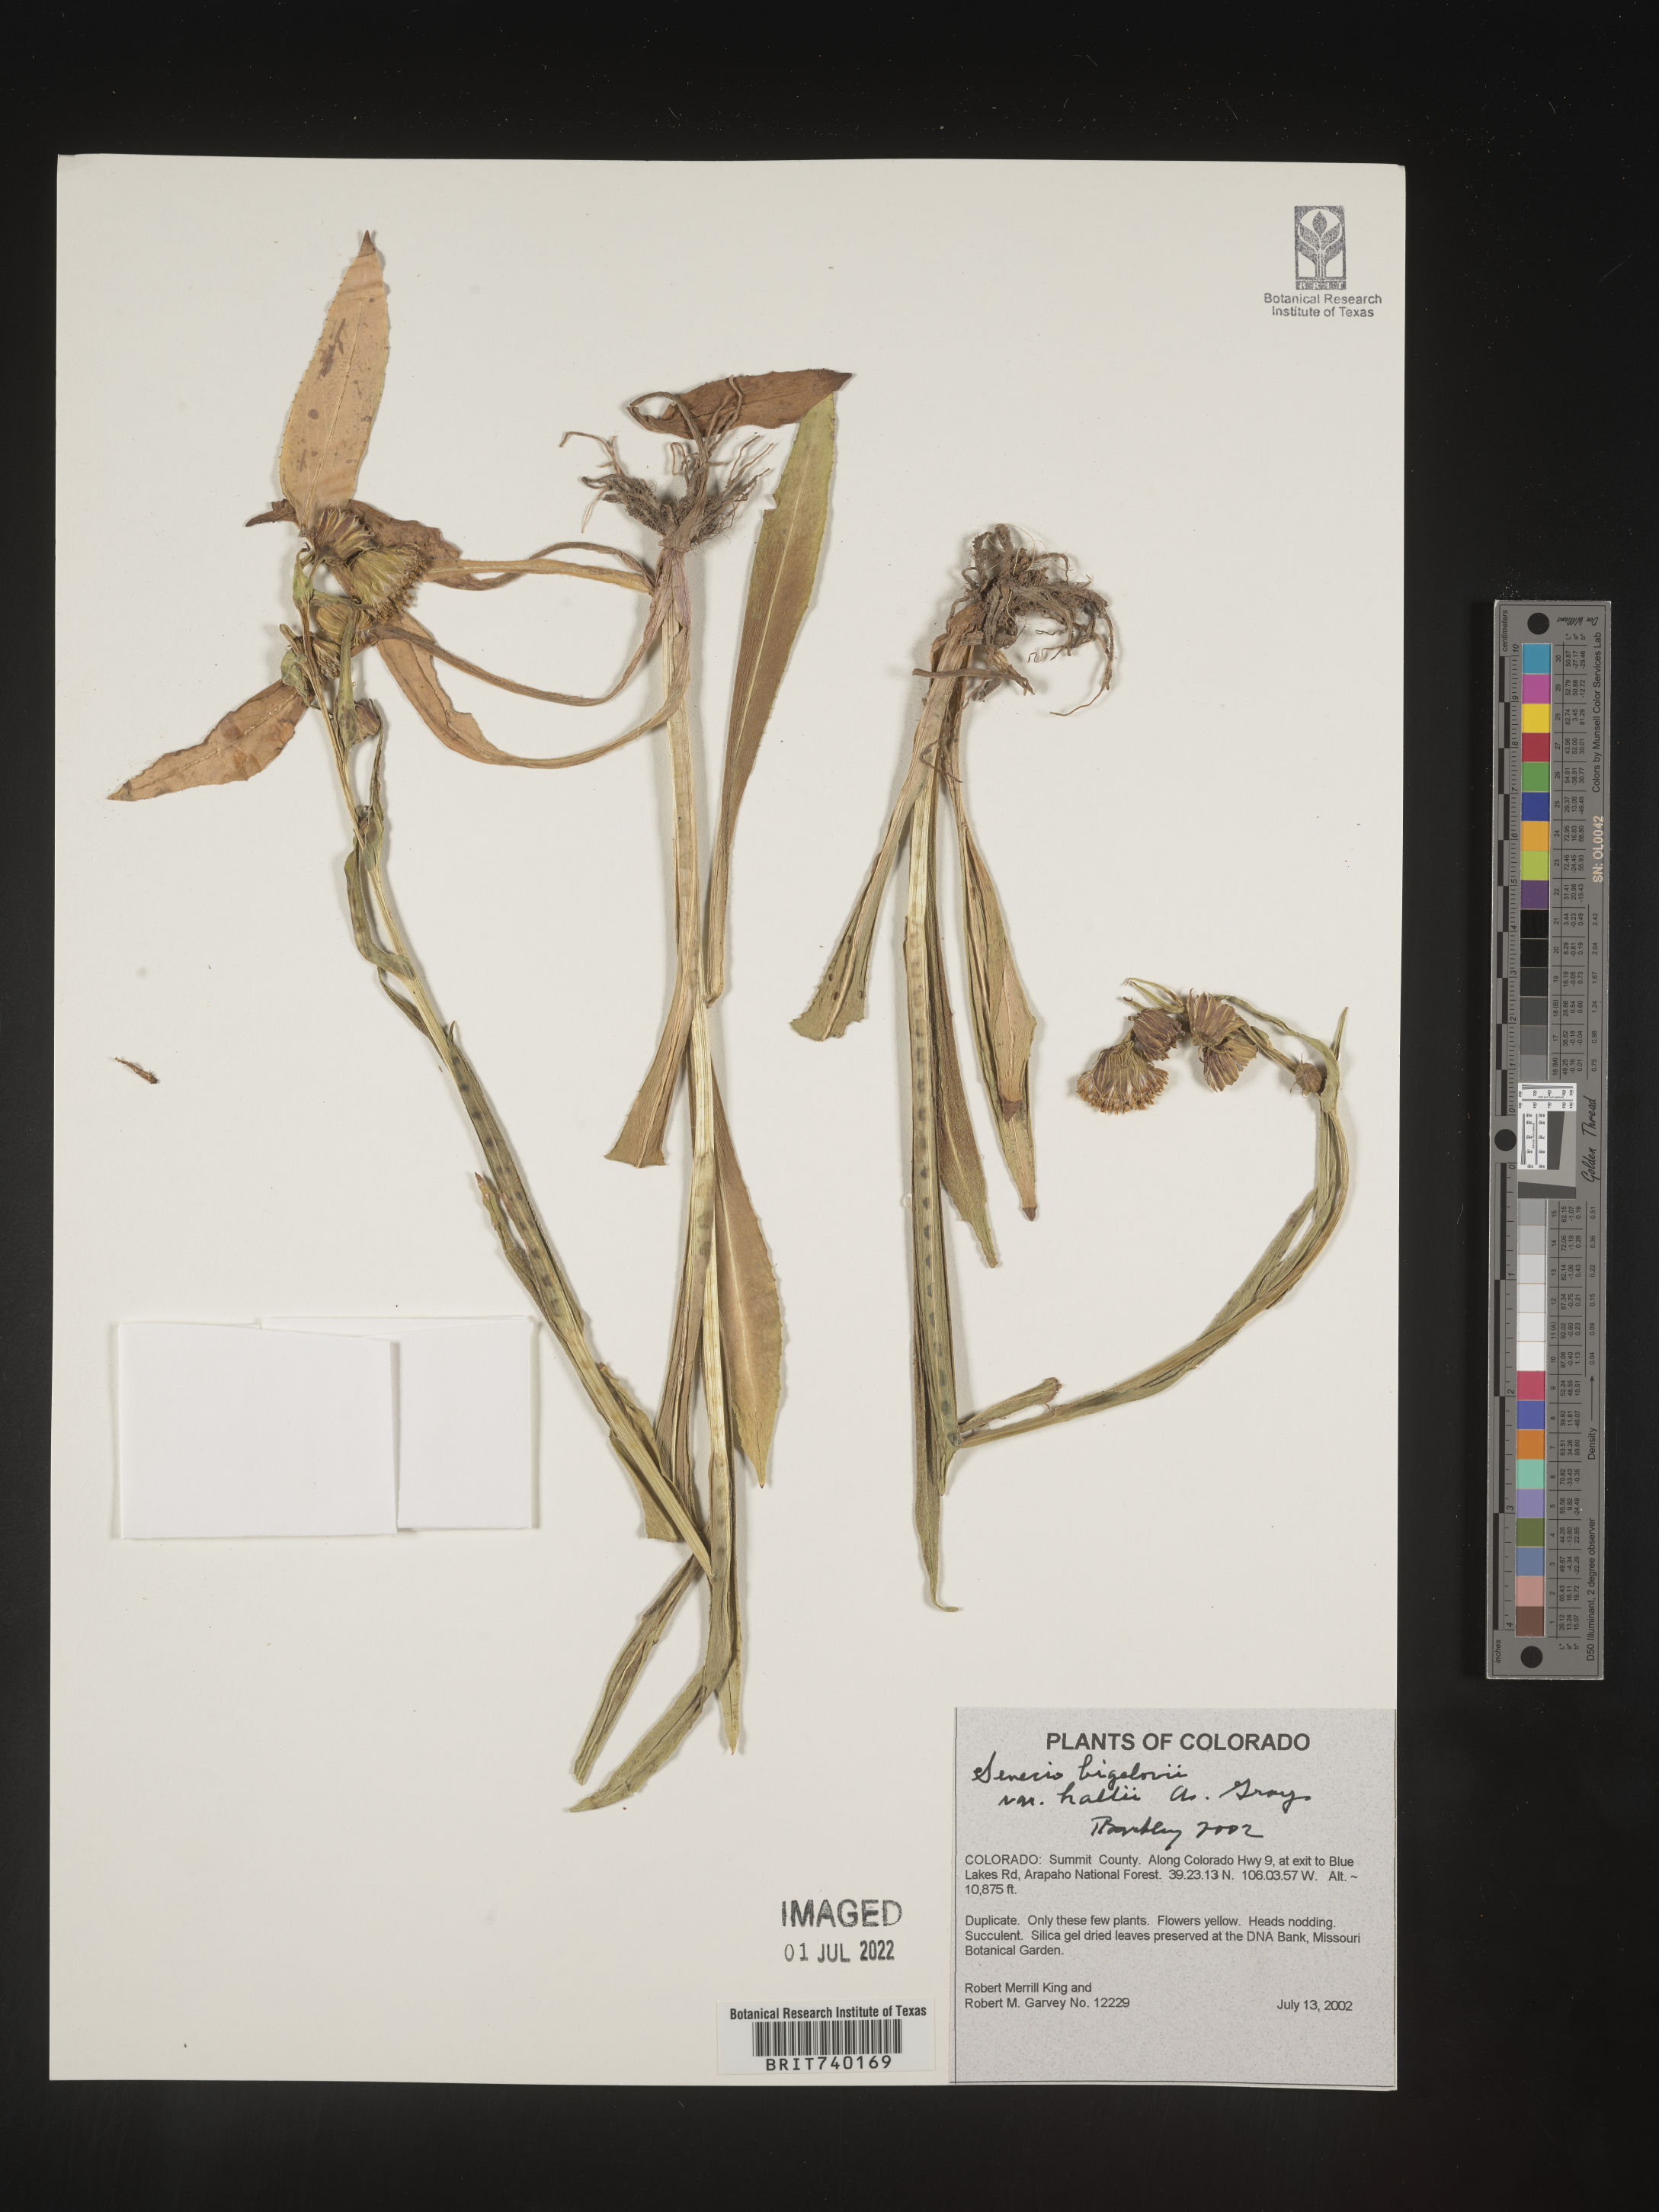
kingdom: Plantae
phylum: Tracheophyta
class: Magnoliopsida
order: Asterales
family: Asteraceae
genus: Senecio
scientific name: Senecio bigelovii
